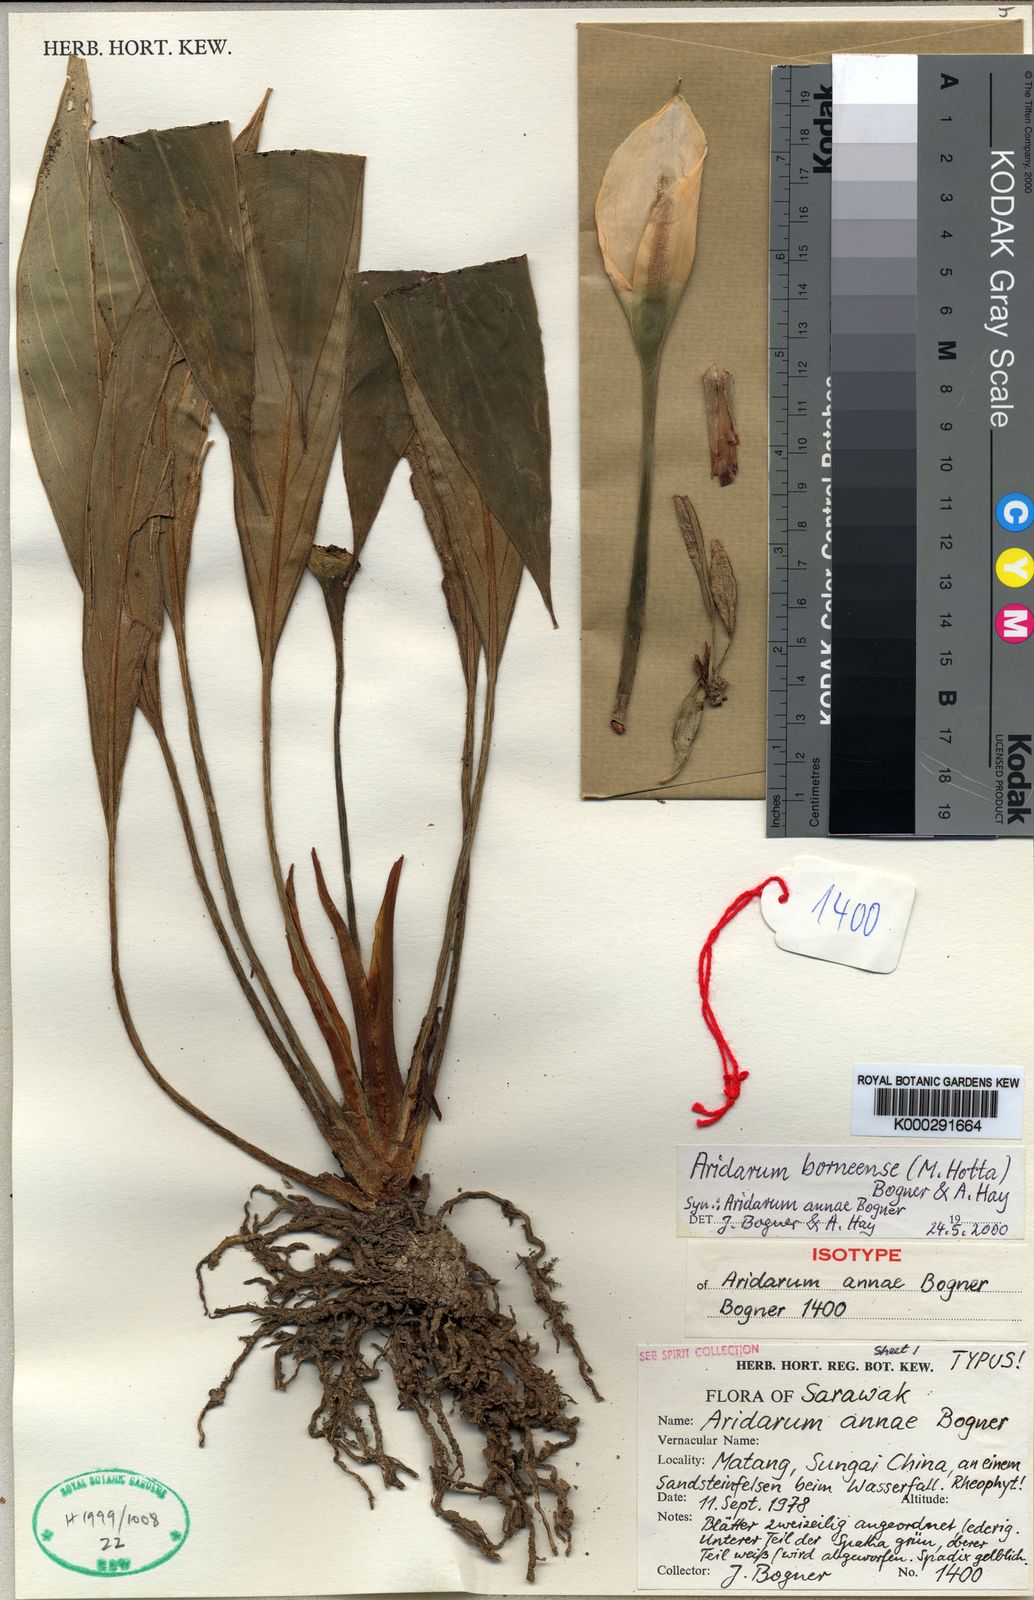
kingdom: Plantae
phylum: Tracheophyta
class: Liliopsida
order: Alismatales
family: Araceae
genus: Heteroaridarum
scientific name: Heteroaridarum borneense
